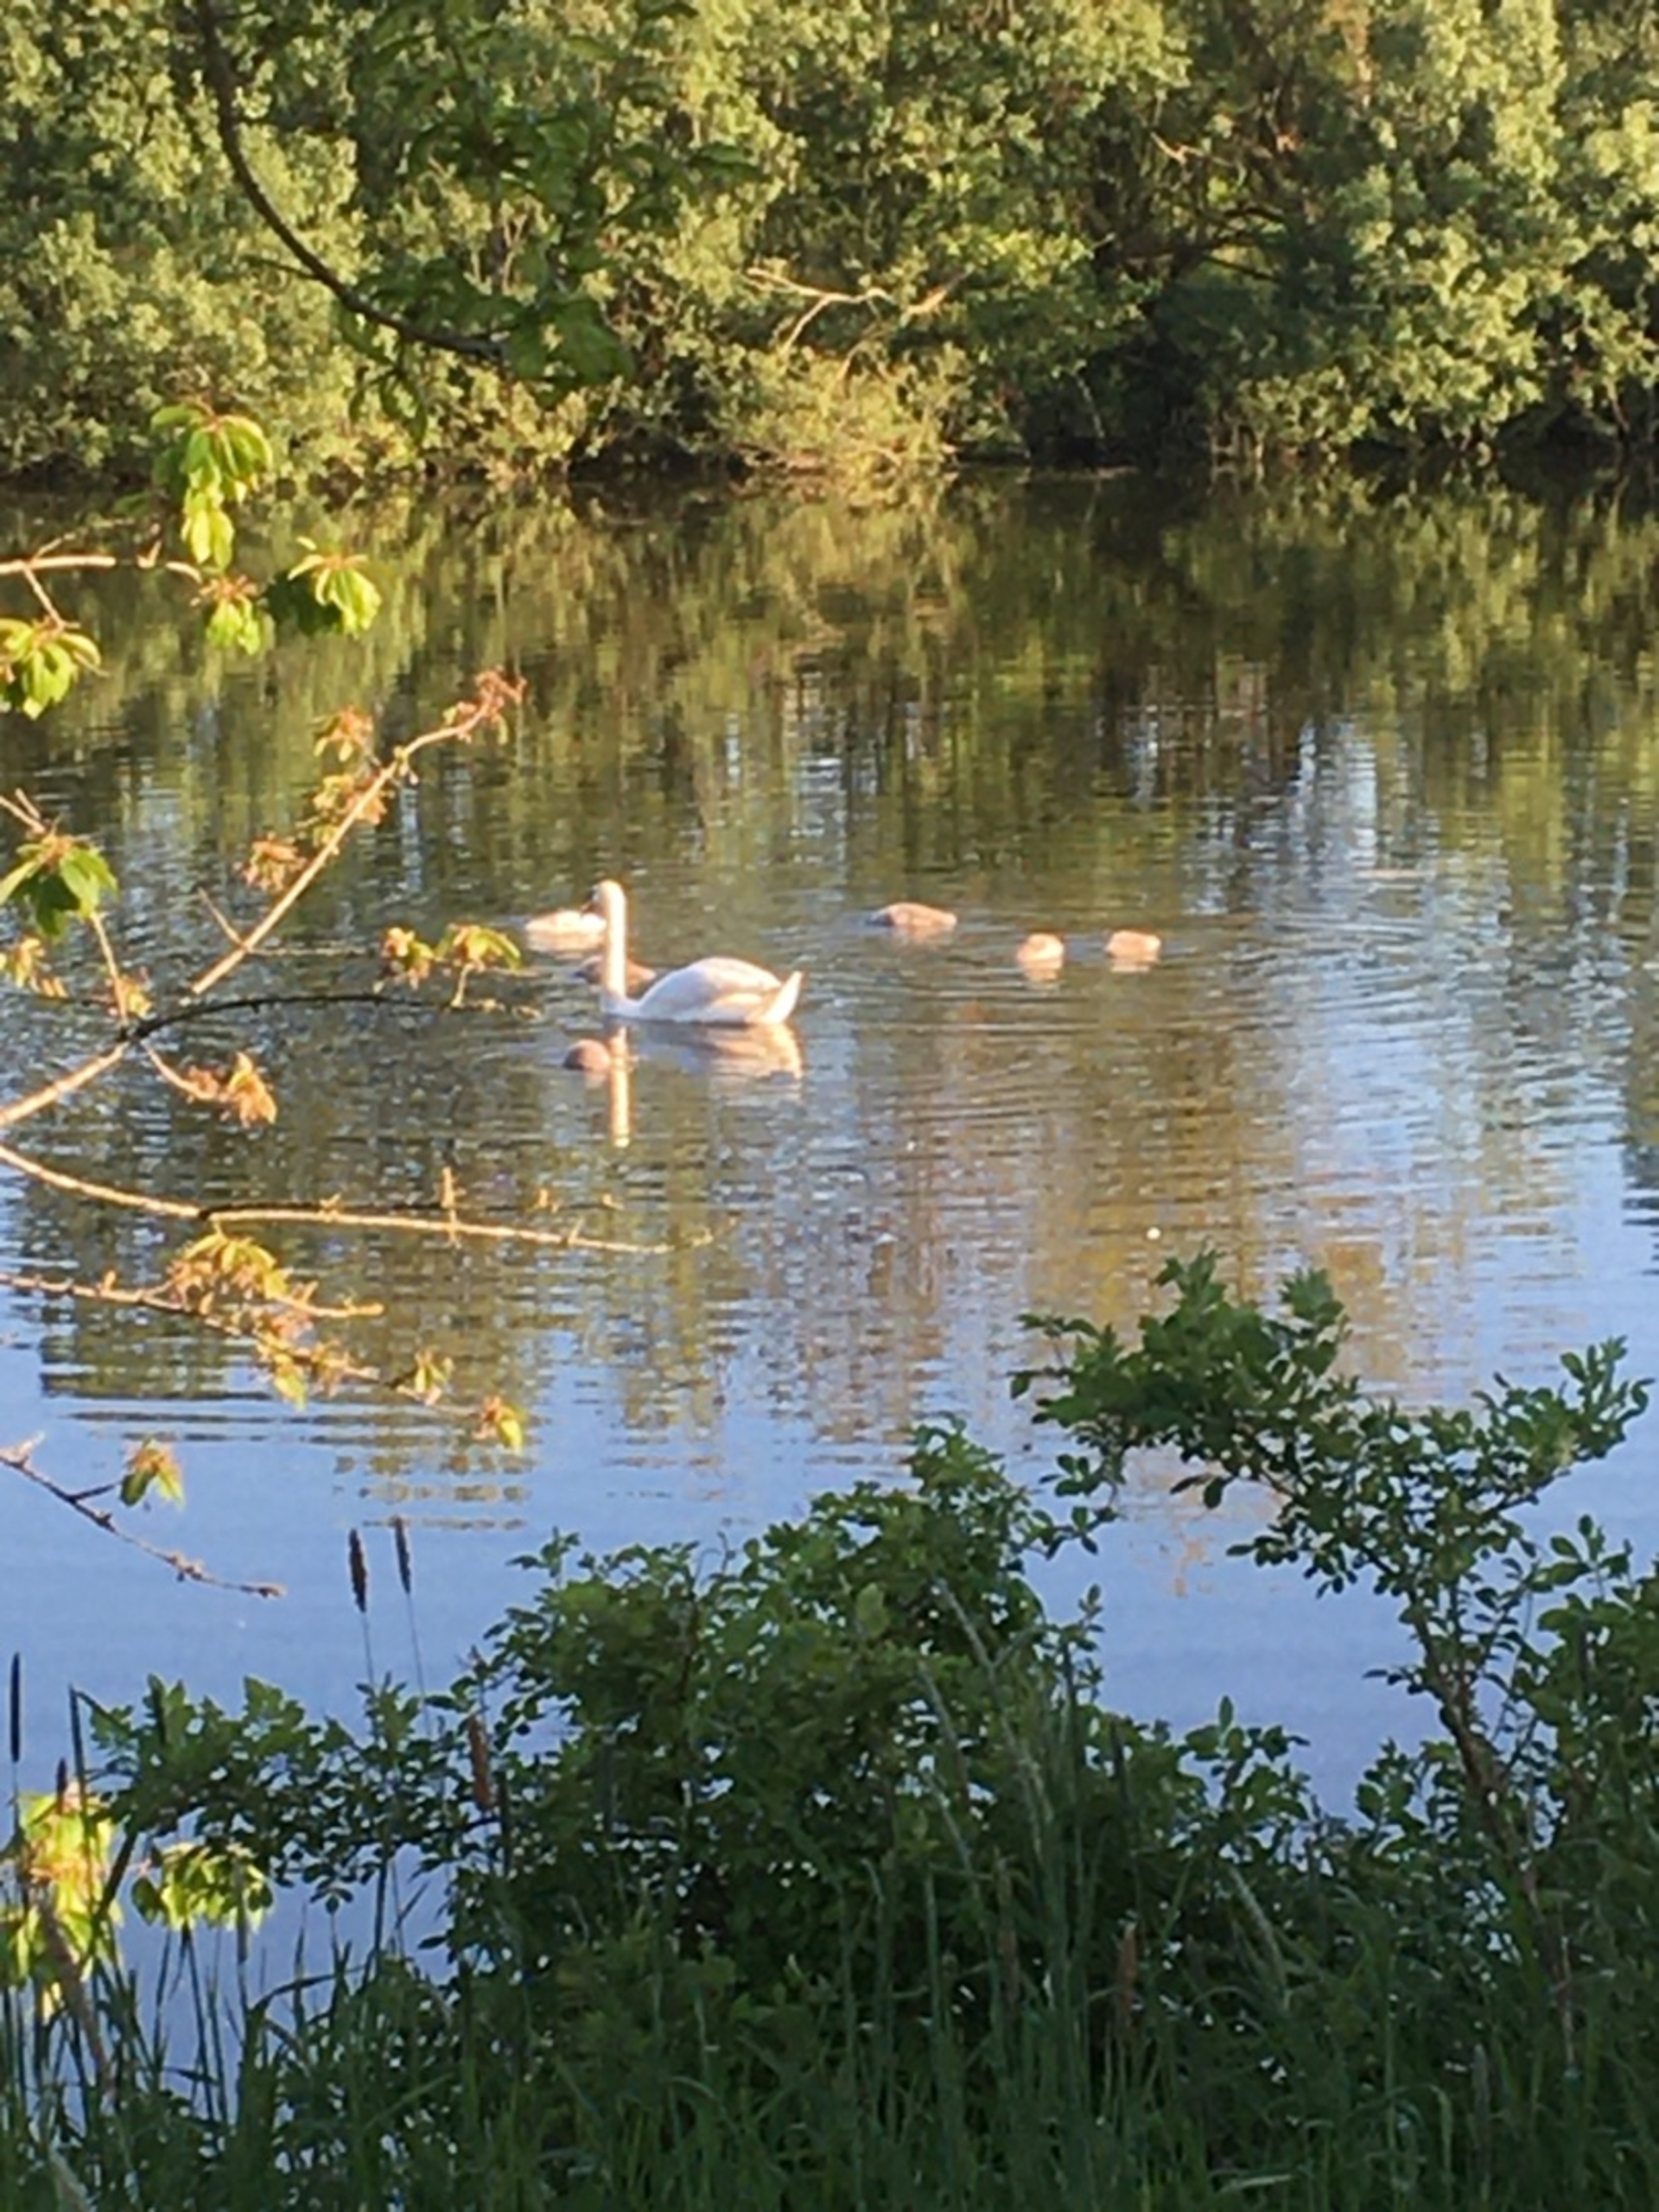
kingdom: Animalia
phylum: Chordata
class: Aves
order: Anseriformes
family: Anatidae
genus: Cygnus
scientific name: Cygnus olor
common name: Knopsvane
